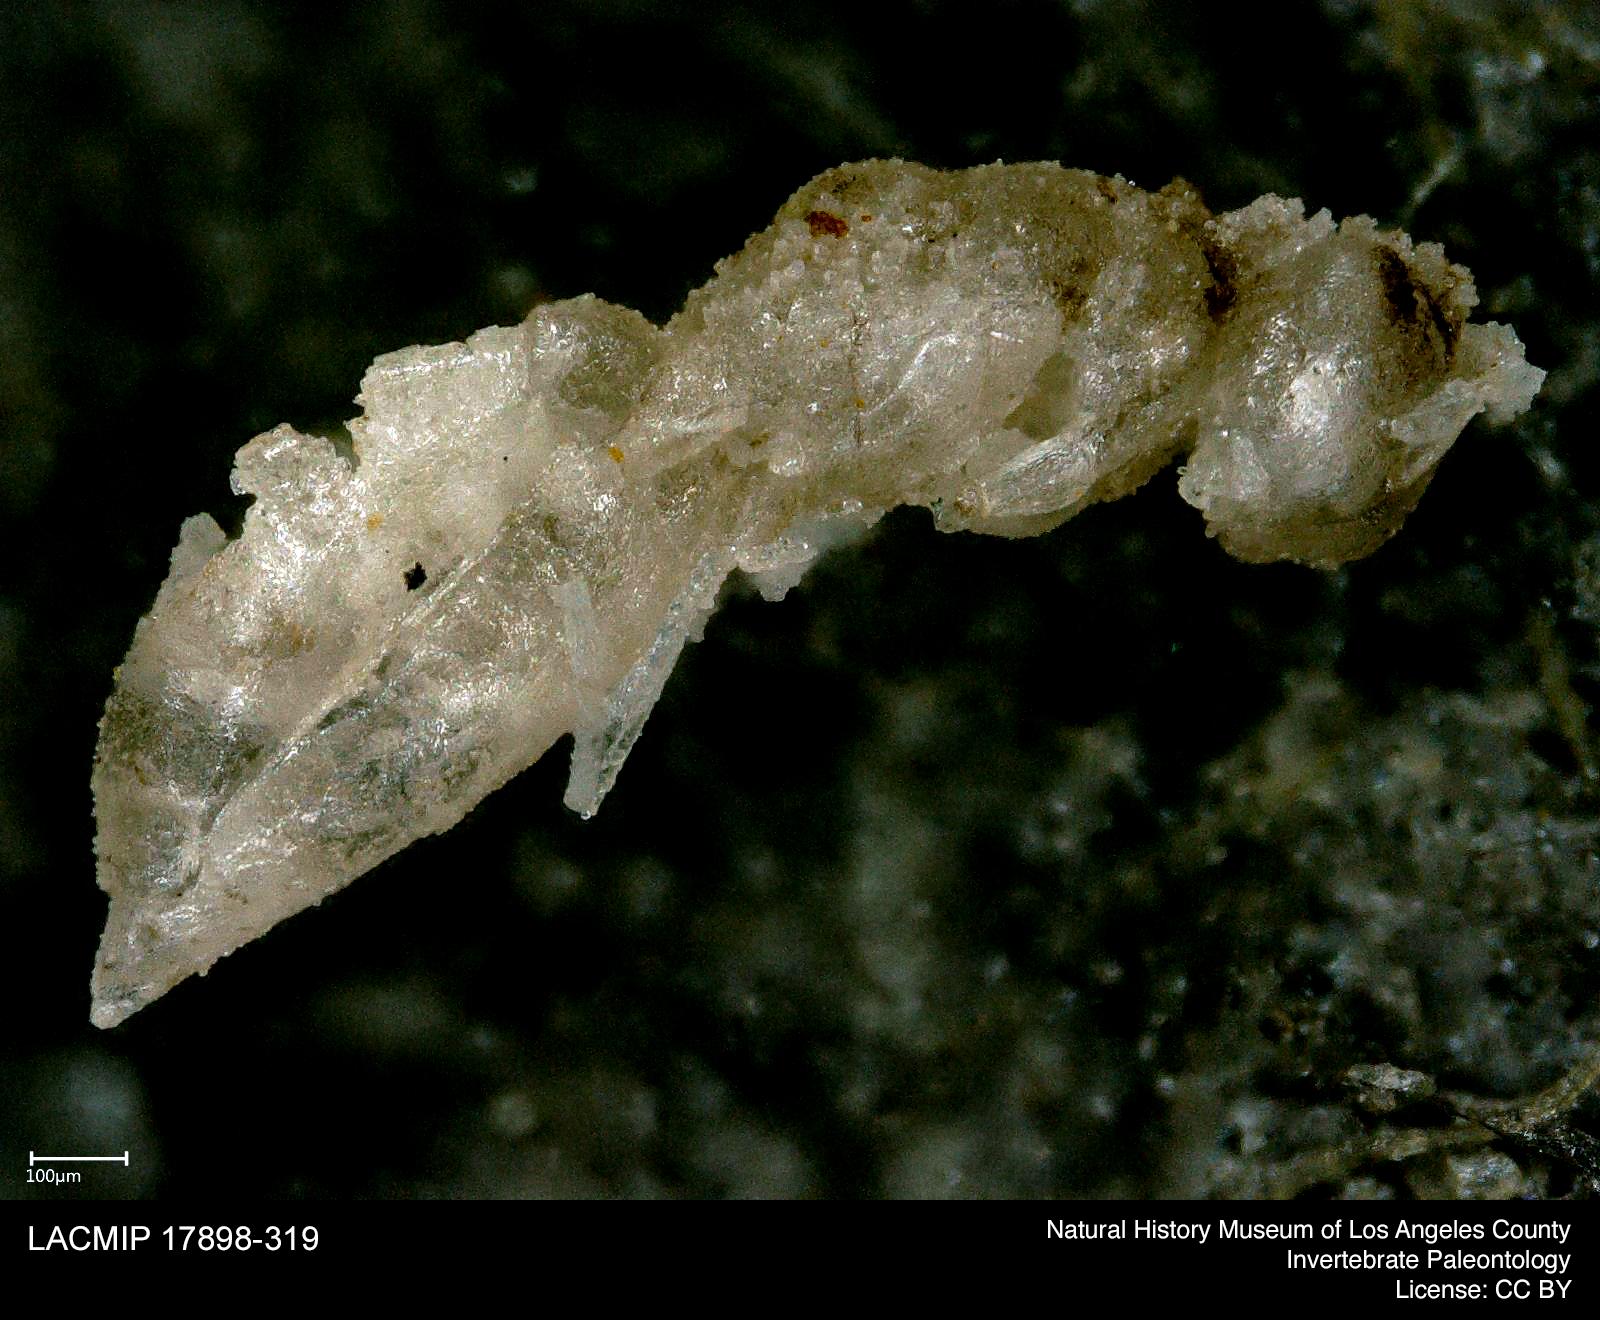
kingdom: Animalia
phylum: Arthropoda
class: Insecta
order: Hymenoptera
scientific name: Hymenoptera
